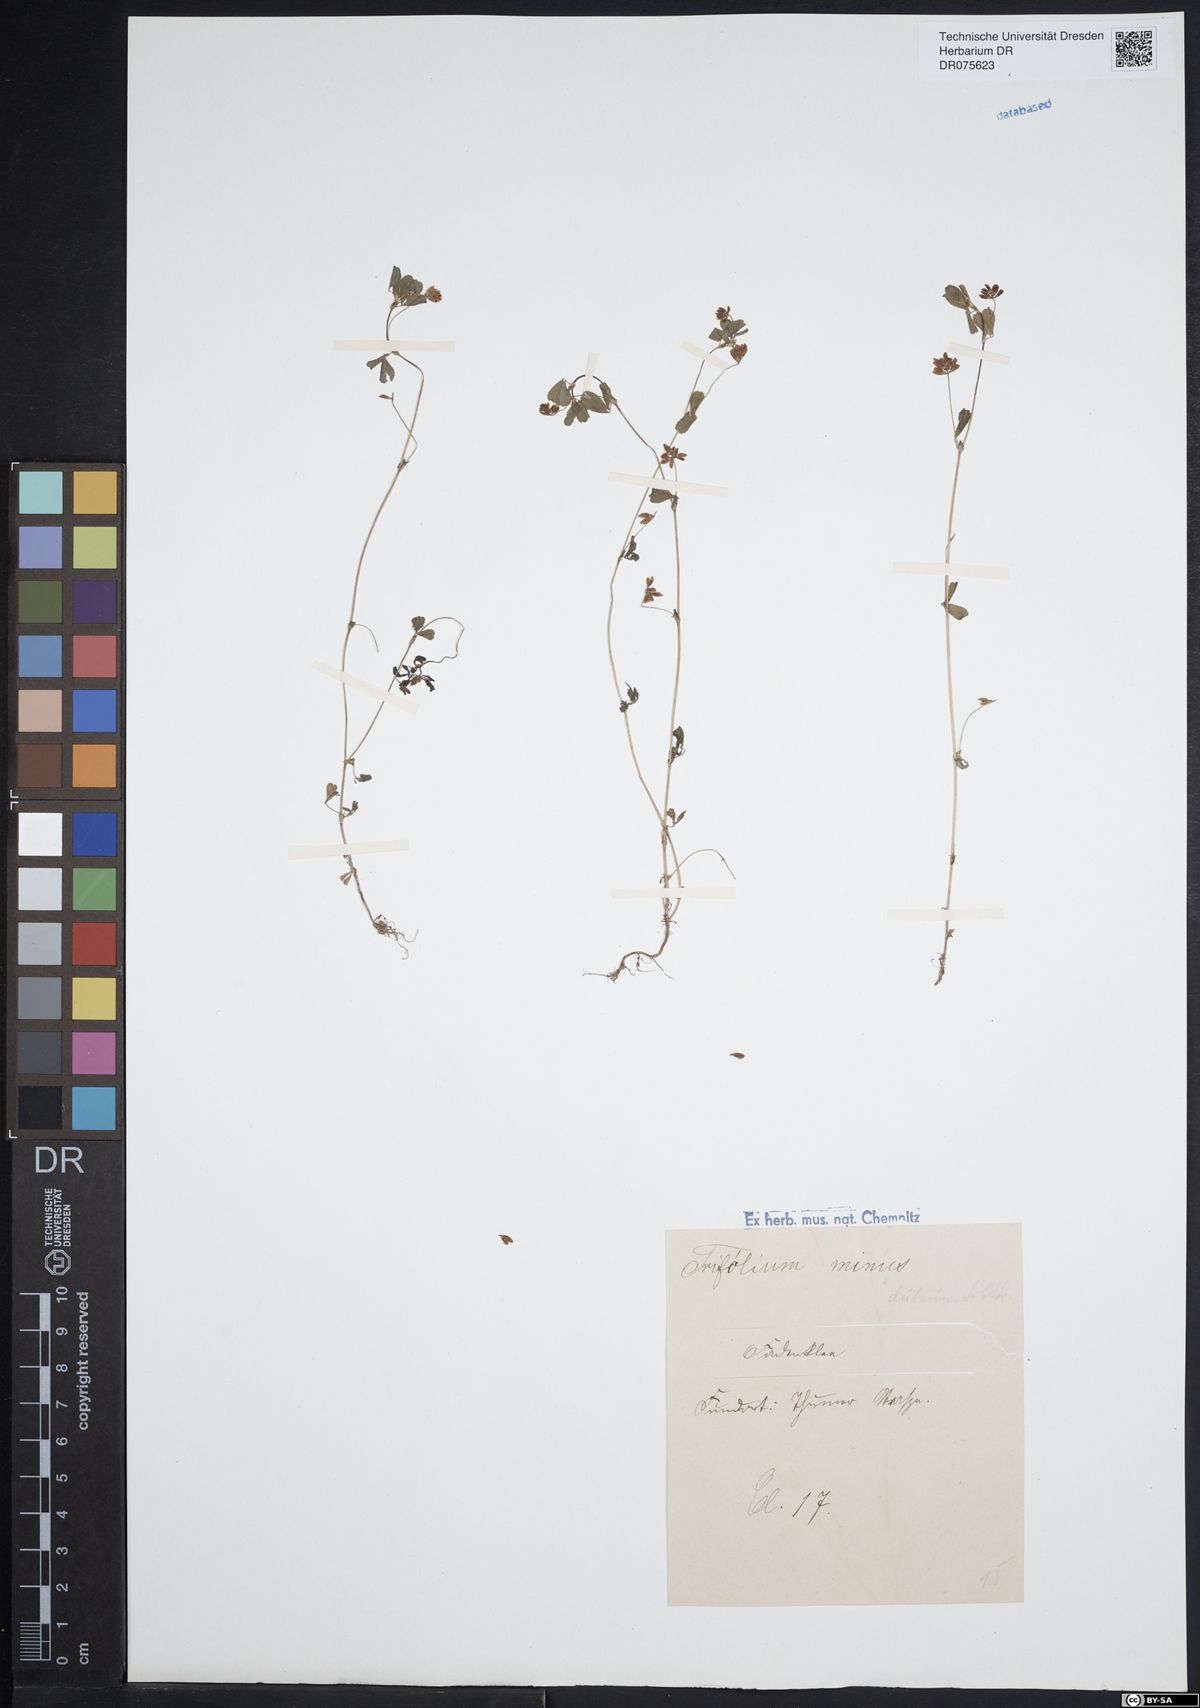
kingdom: Plantae
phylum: Tracheophyta
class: Magnoliopsida
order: Fabales
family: Fabaceae
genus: Trifolium
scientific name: Trifolium dubium
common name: Suckling clover
